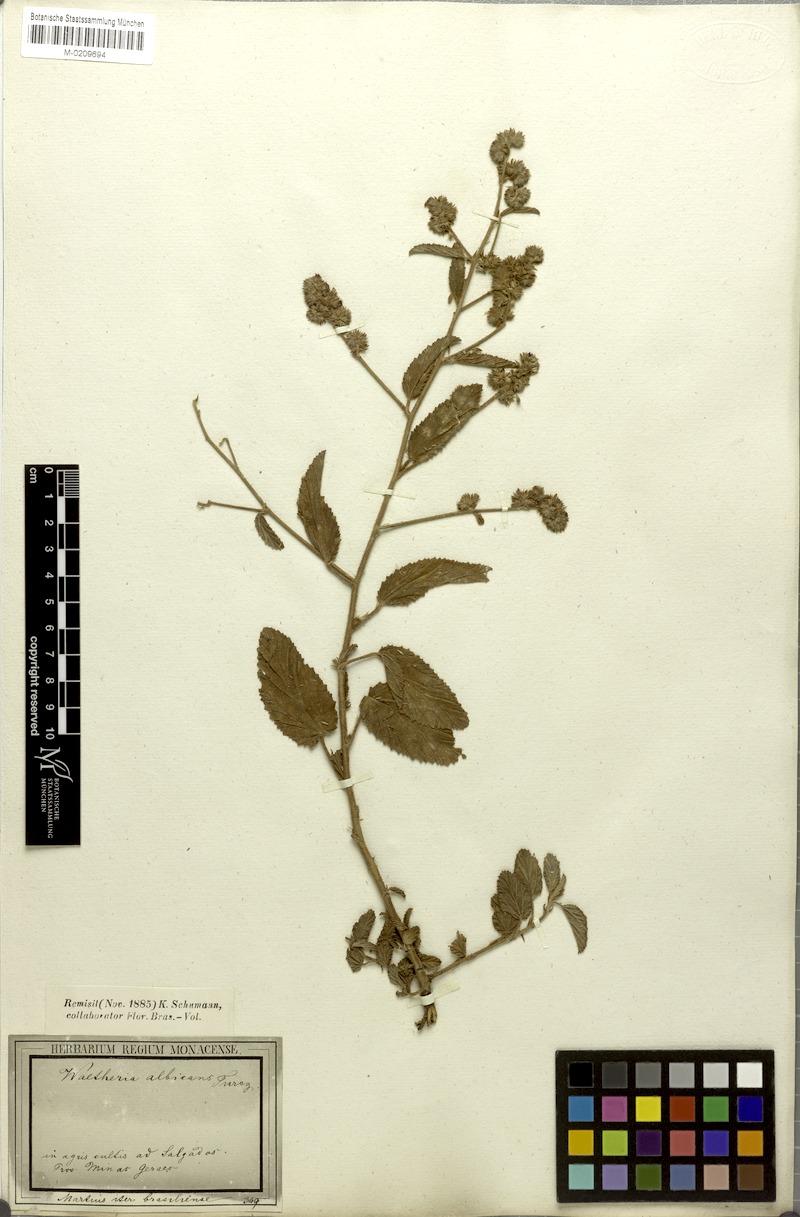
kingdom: Plantae
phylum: Tracheophyta
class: Magnoliopsida
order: Malvales
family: Malvaceae
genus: Waltheria
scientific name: Waltheria albicans
